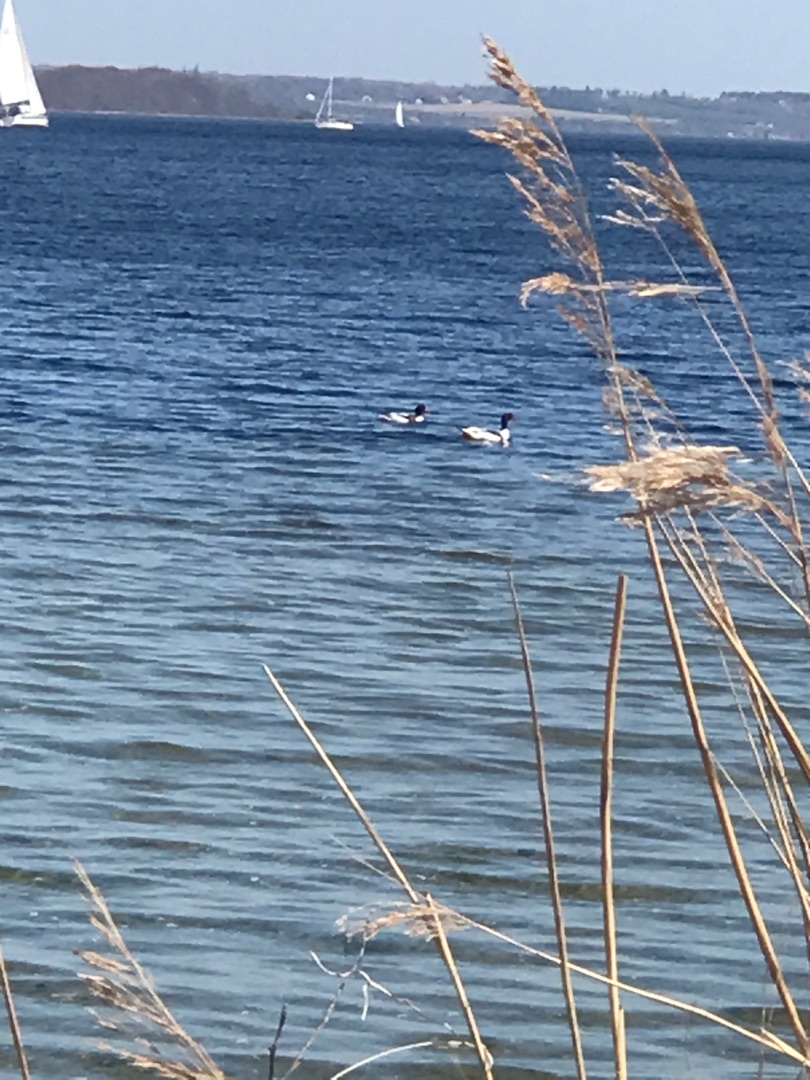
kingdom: Animalia
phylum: Chordata
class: Aves
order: Anseriformes
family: Anatidae
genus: Tadorna
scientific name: Tadorna tadorna
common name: Gravand
